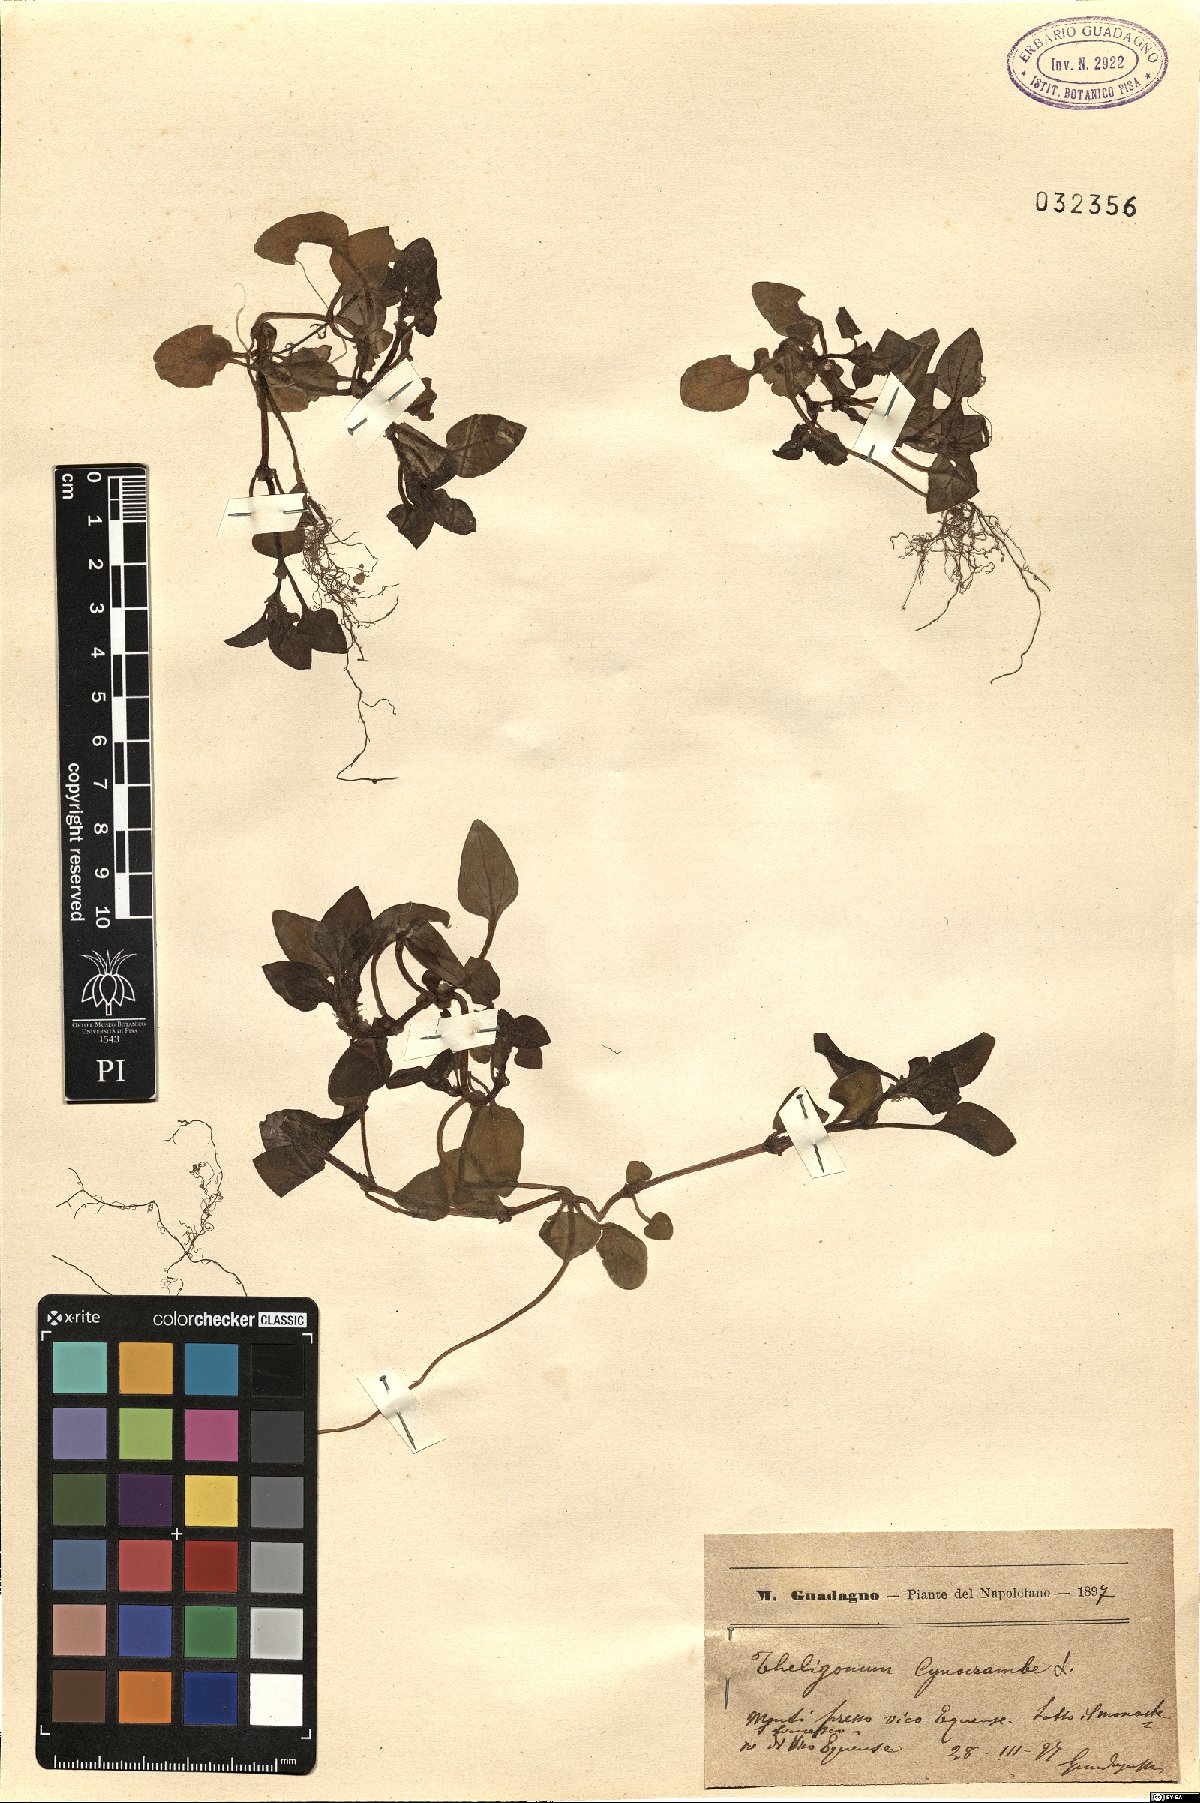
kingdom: Plantae
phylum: Tracheophyta
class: Magnoliopsida
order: Gentianales
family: Rubiaceae
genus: Theligonum
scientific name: Theligonum cynocrambe
